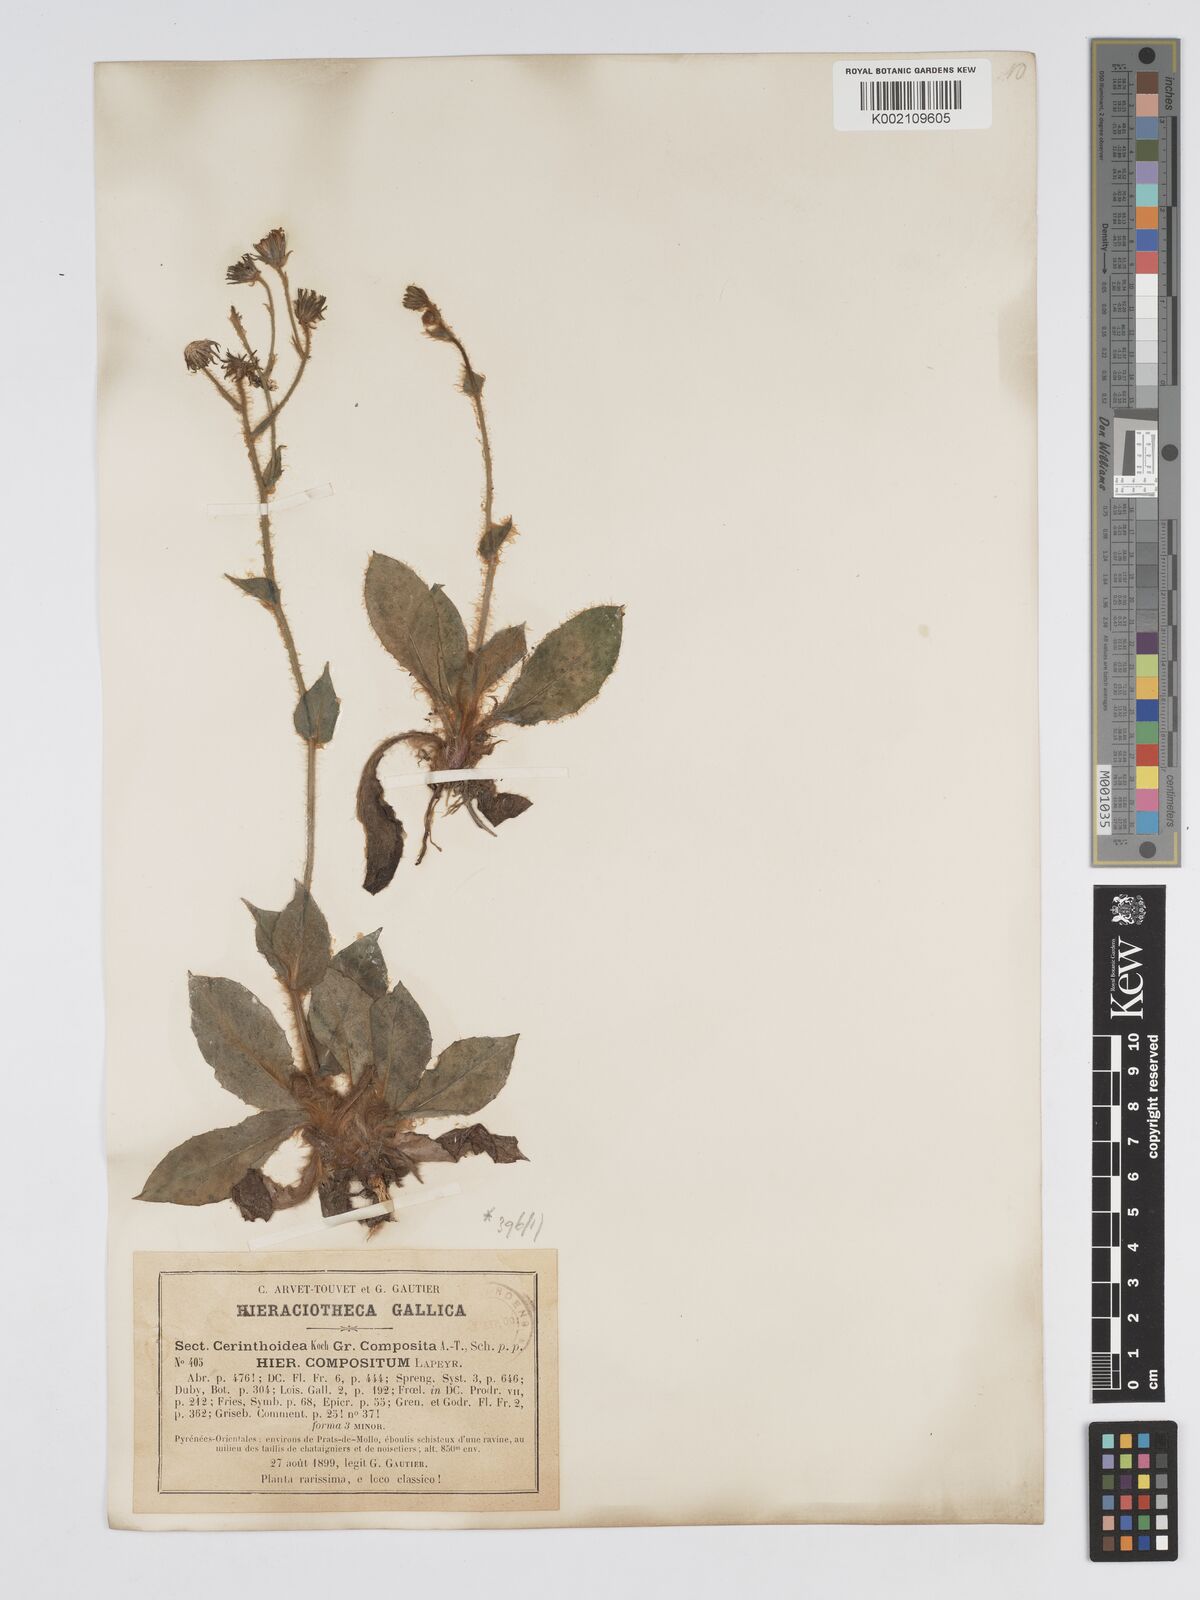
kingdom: Plantae
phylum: Tracheophyta
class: Magnoliopsida
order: Asterales
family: Asteraceae
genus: Hieracium
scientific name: Hieracium compositum
